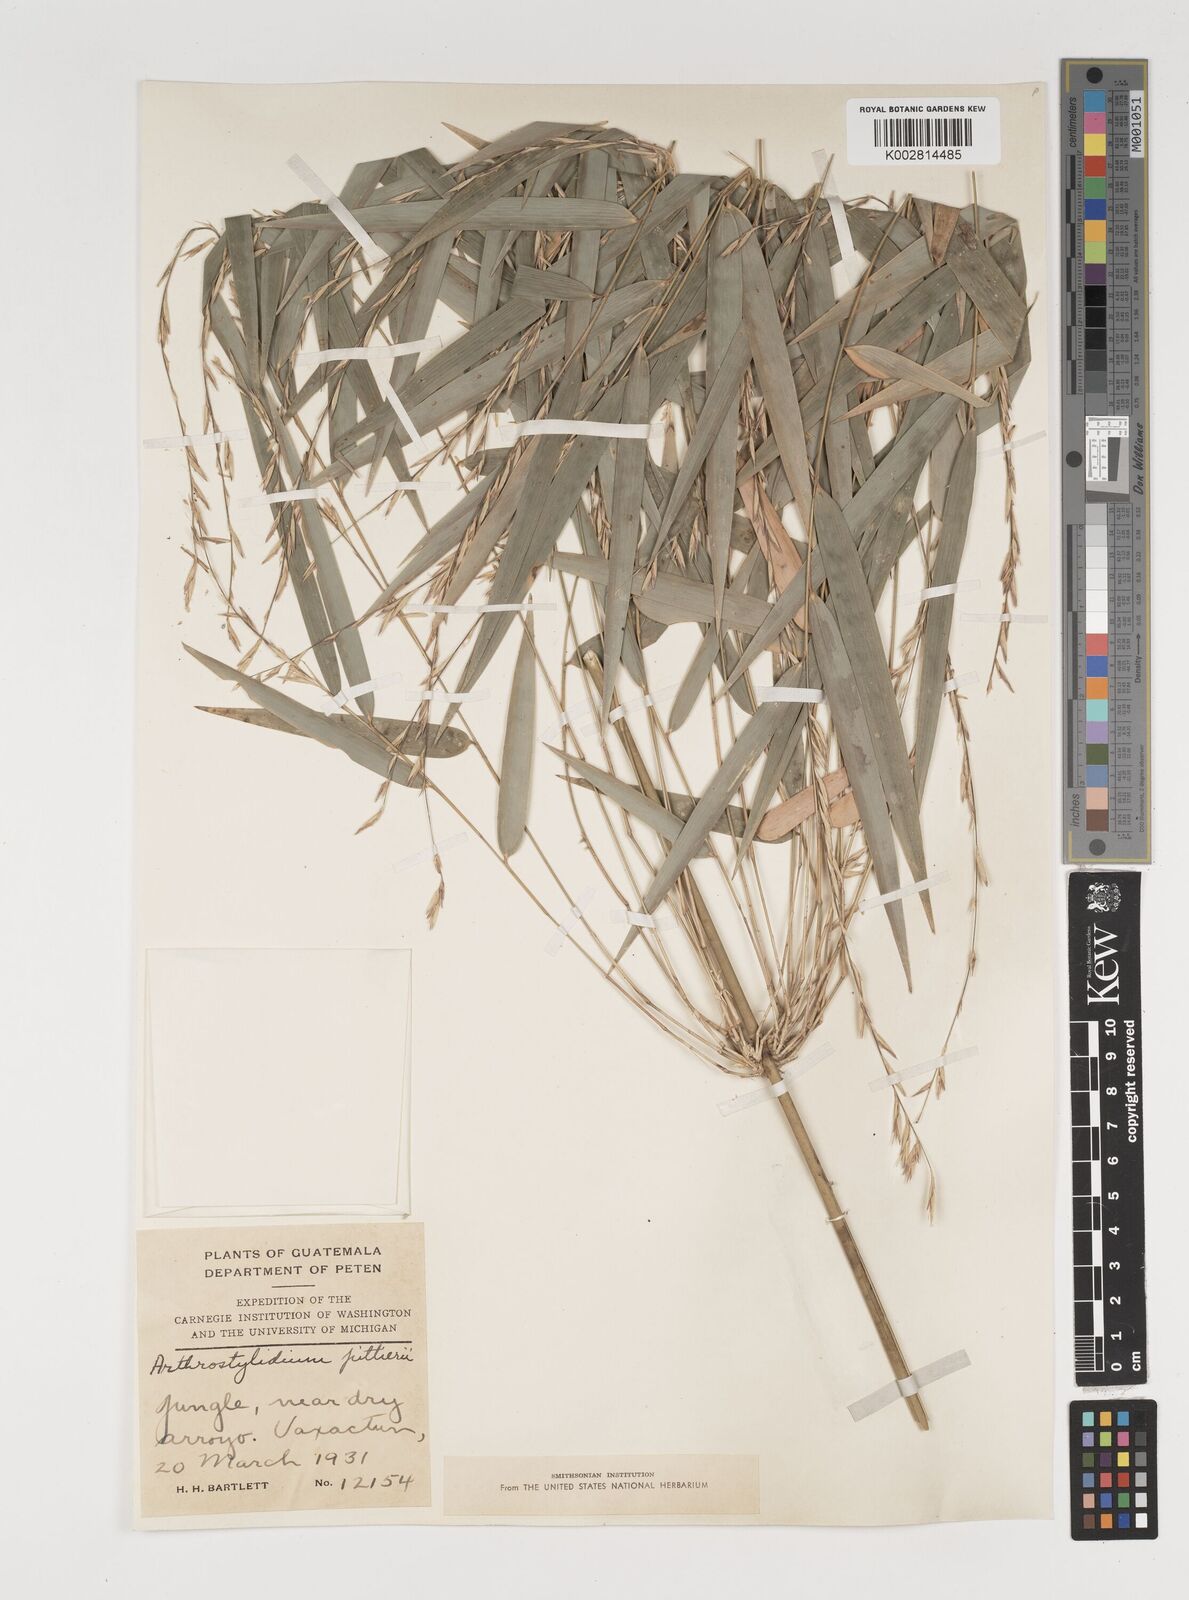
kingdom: Plantae
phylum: Tracheophyta
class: Liliopsida
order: Poales
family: Poaceae
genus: Rhipidocladum
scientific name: Rhipidocladum pittieri
